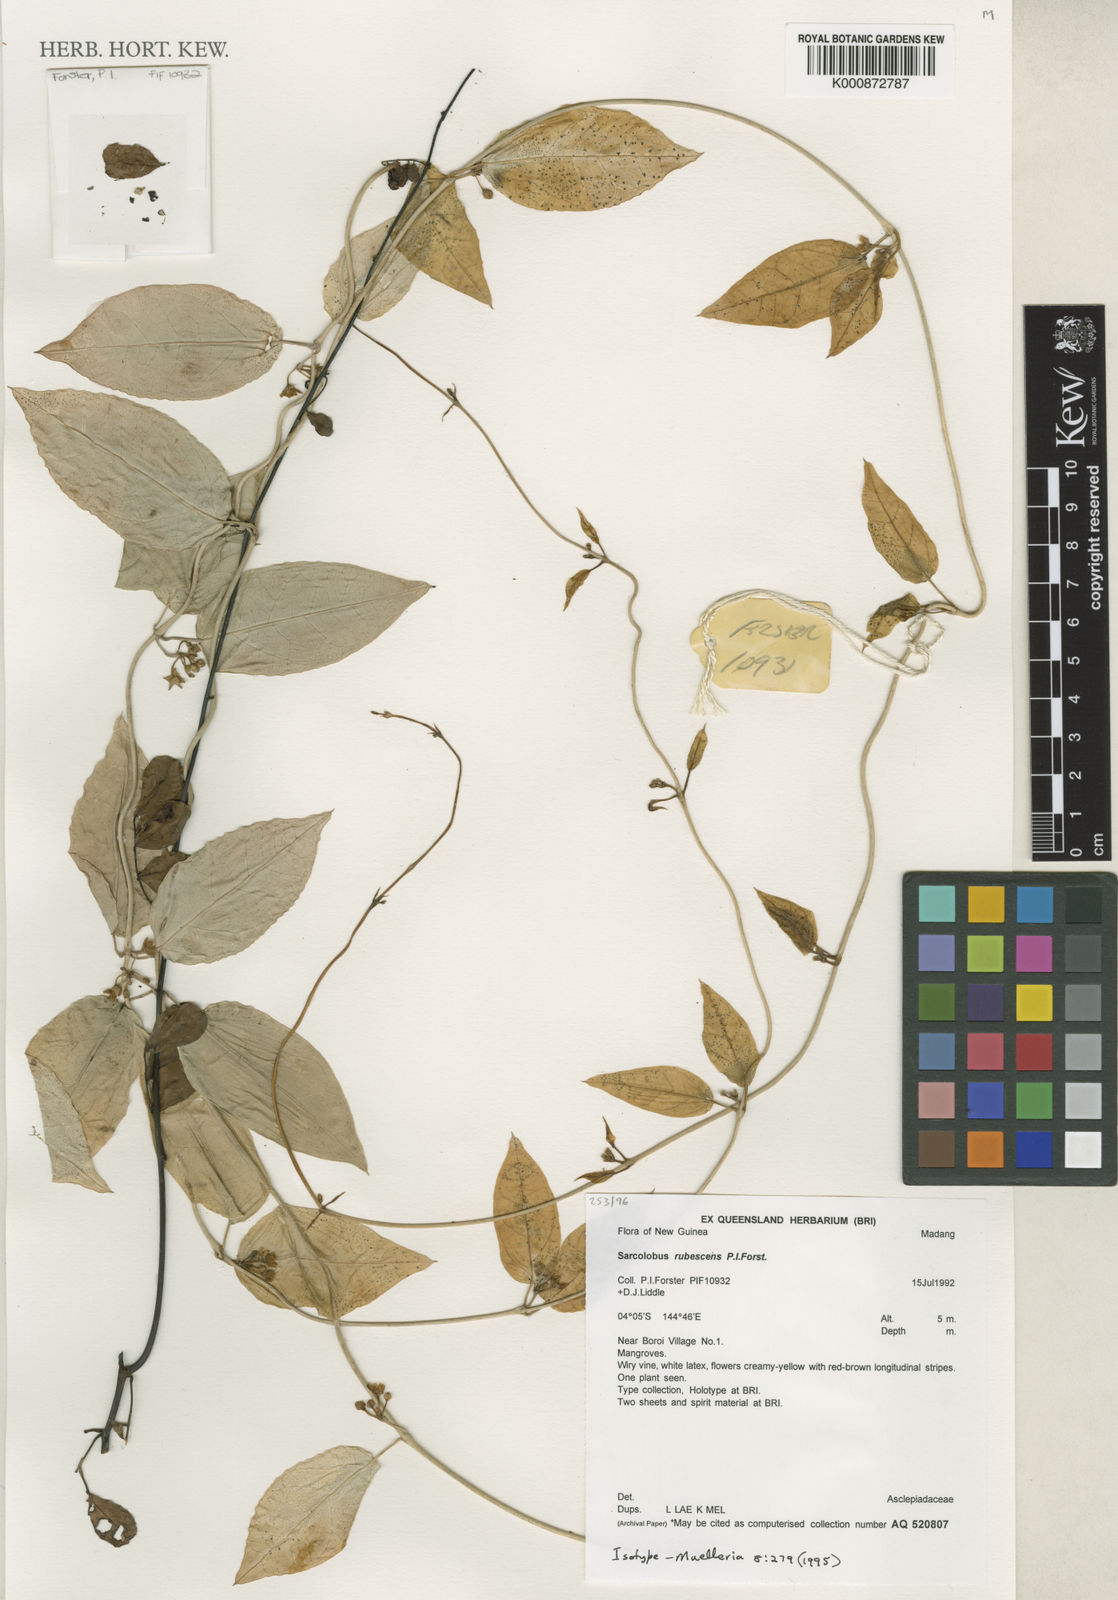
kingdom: Plantae
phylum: Tracheophyta
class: Magnoliopsida
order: Gentianales
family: Apocynaceae
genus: Sarcolobus
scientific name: Sarcolobus rubescens
